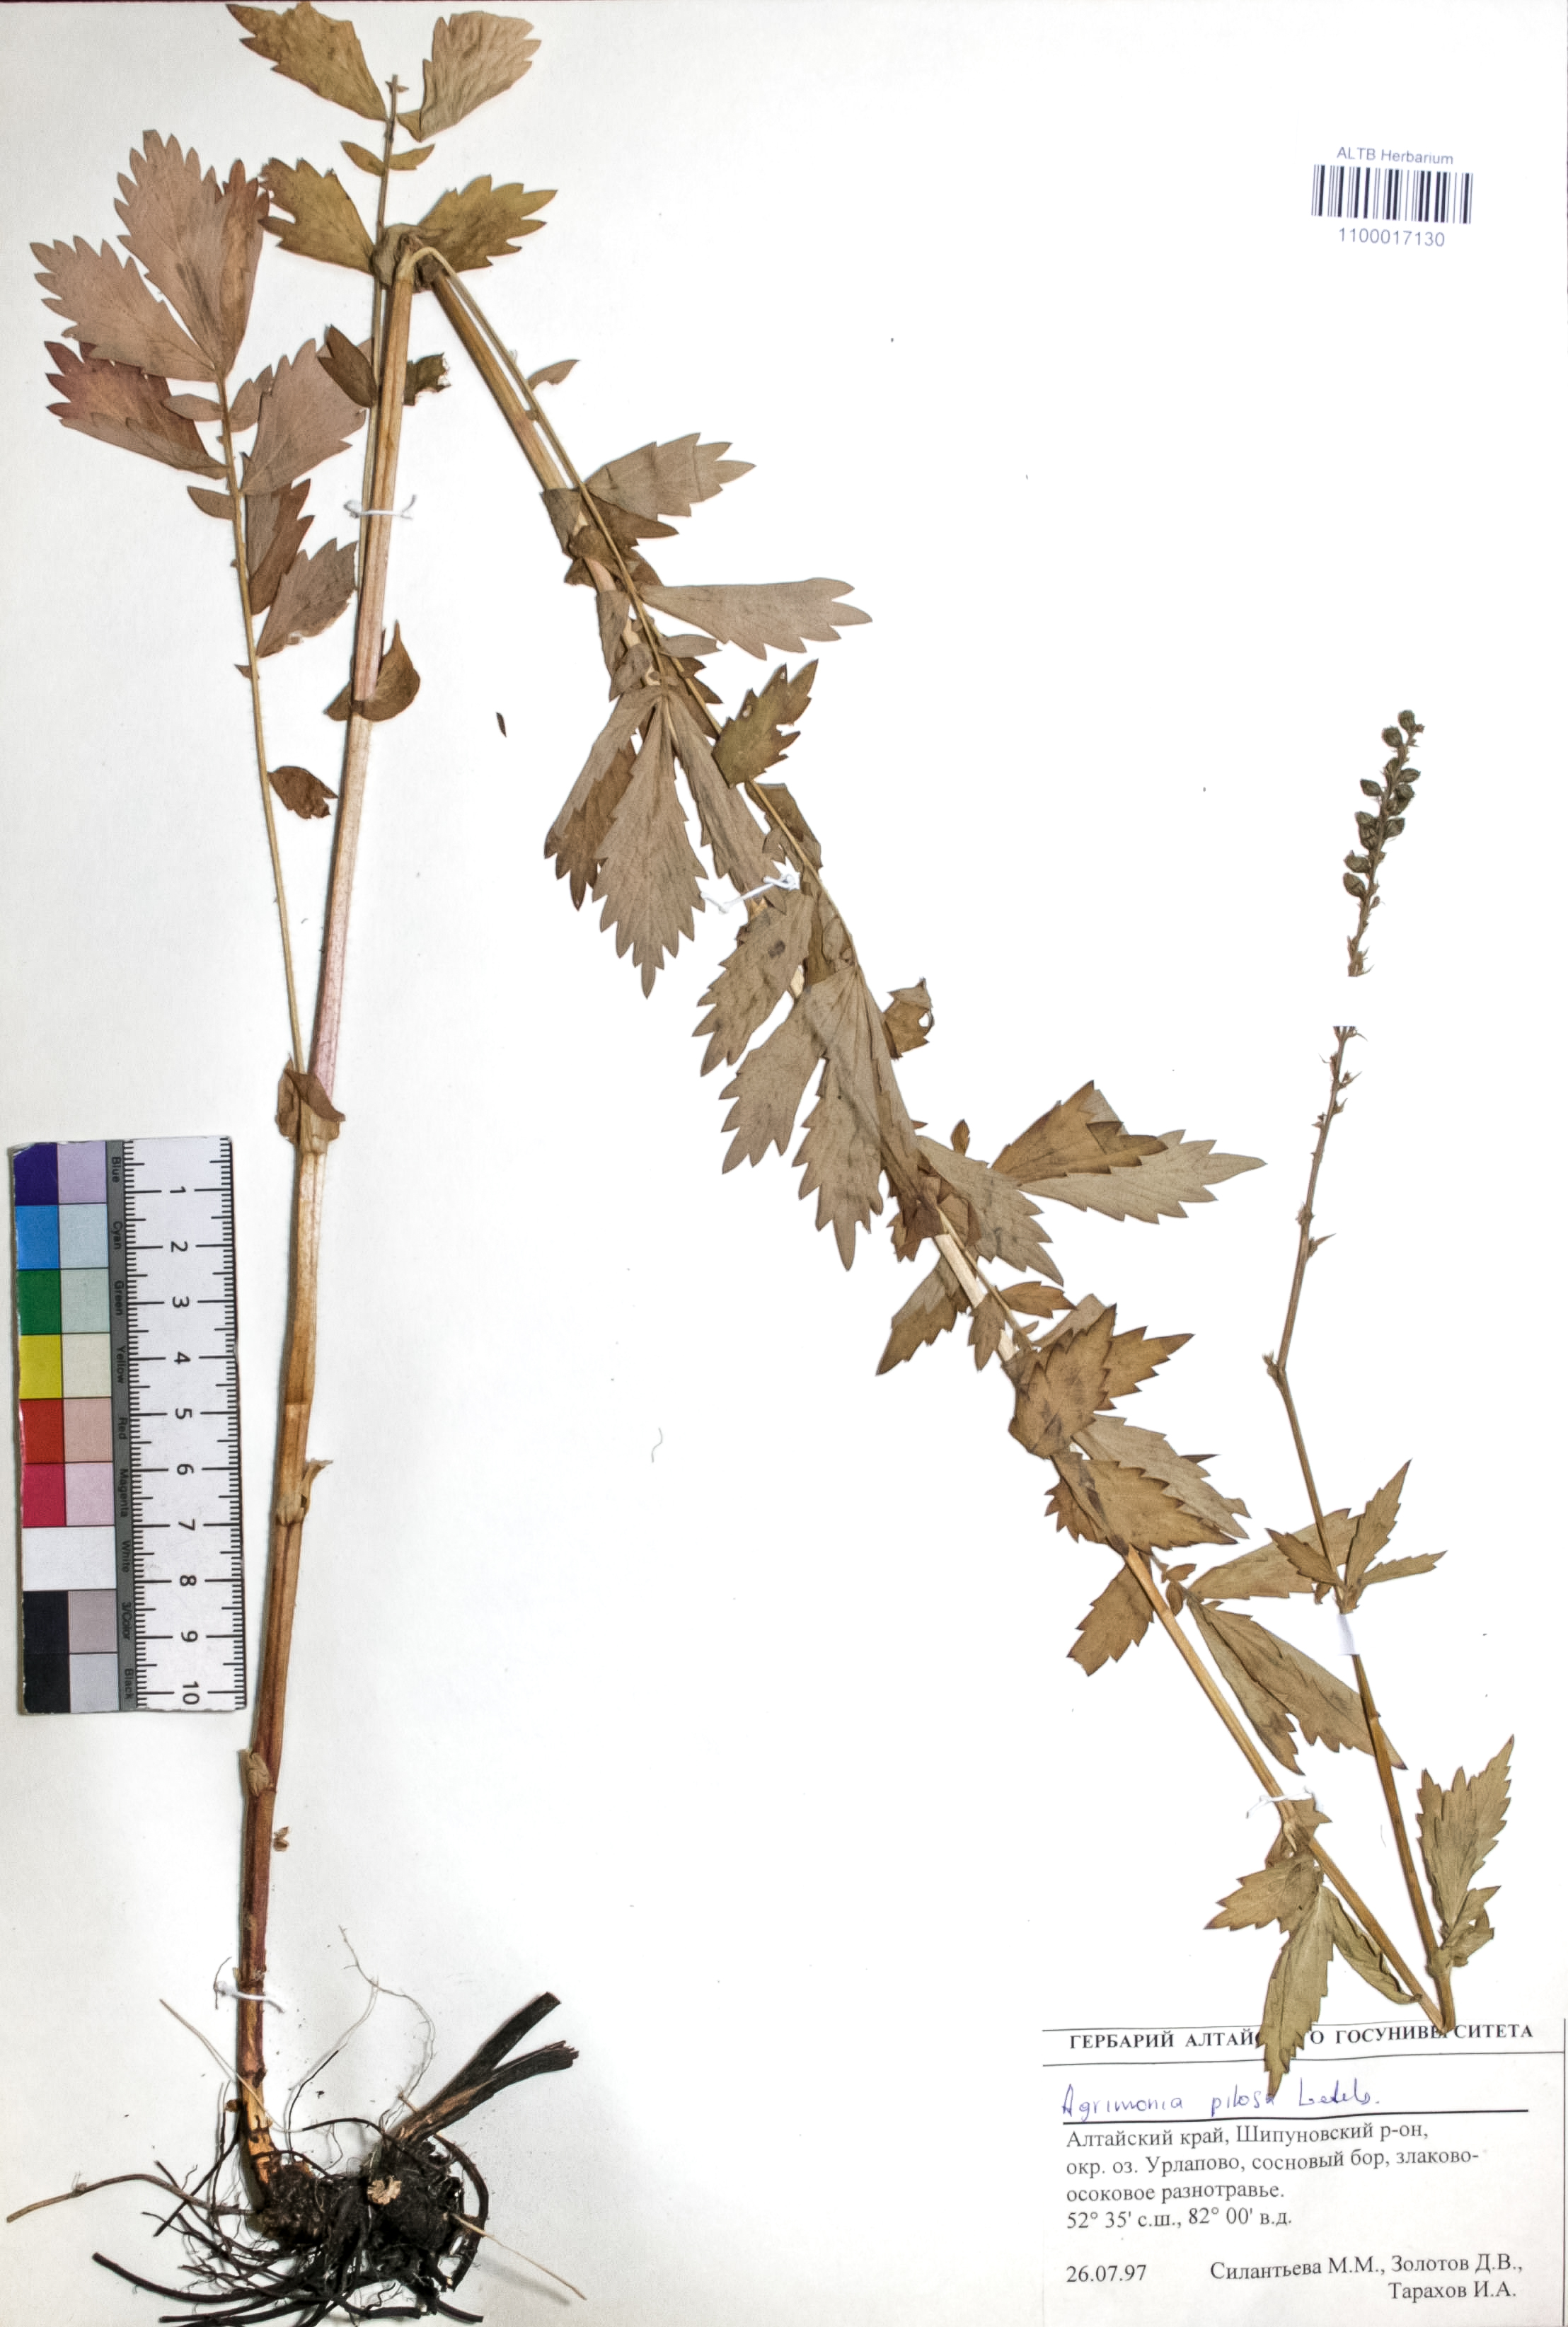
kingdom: Plantae
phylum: Tracheophyta
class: Magnoliopsida
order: Rosales
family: Rosaceae
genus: Agrimonia
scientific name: Agrimonia pilosa
